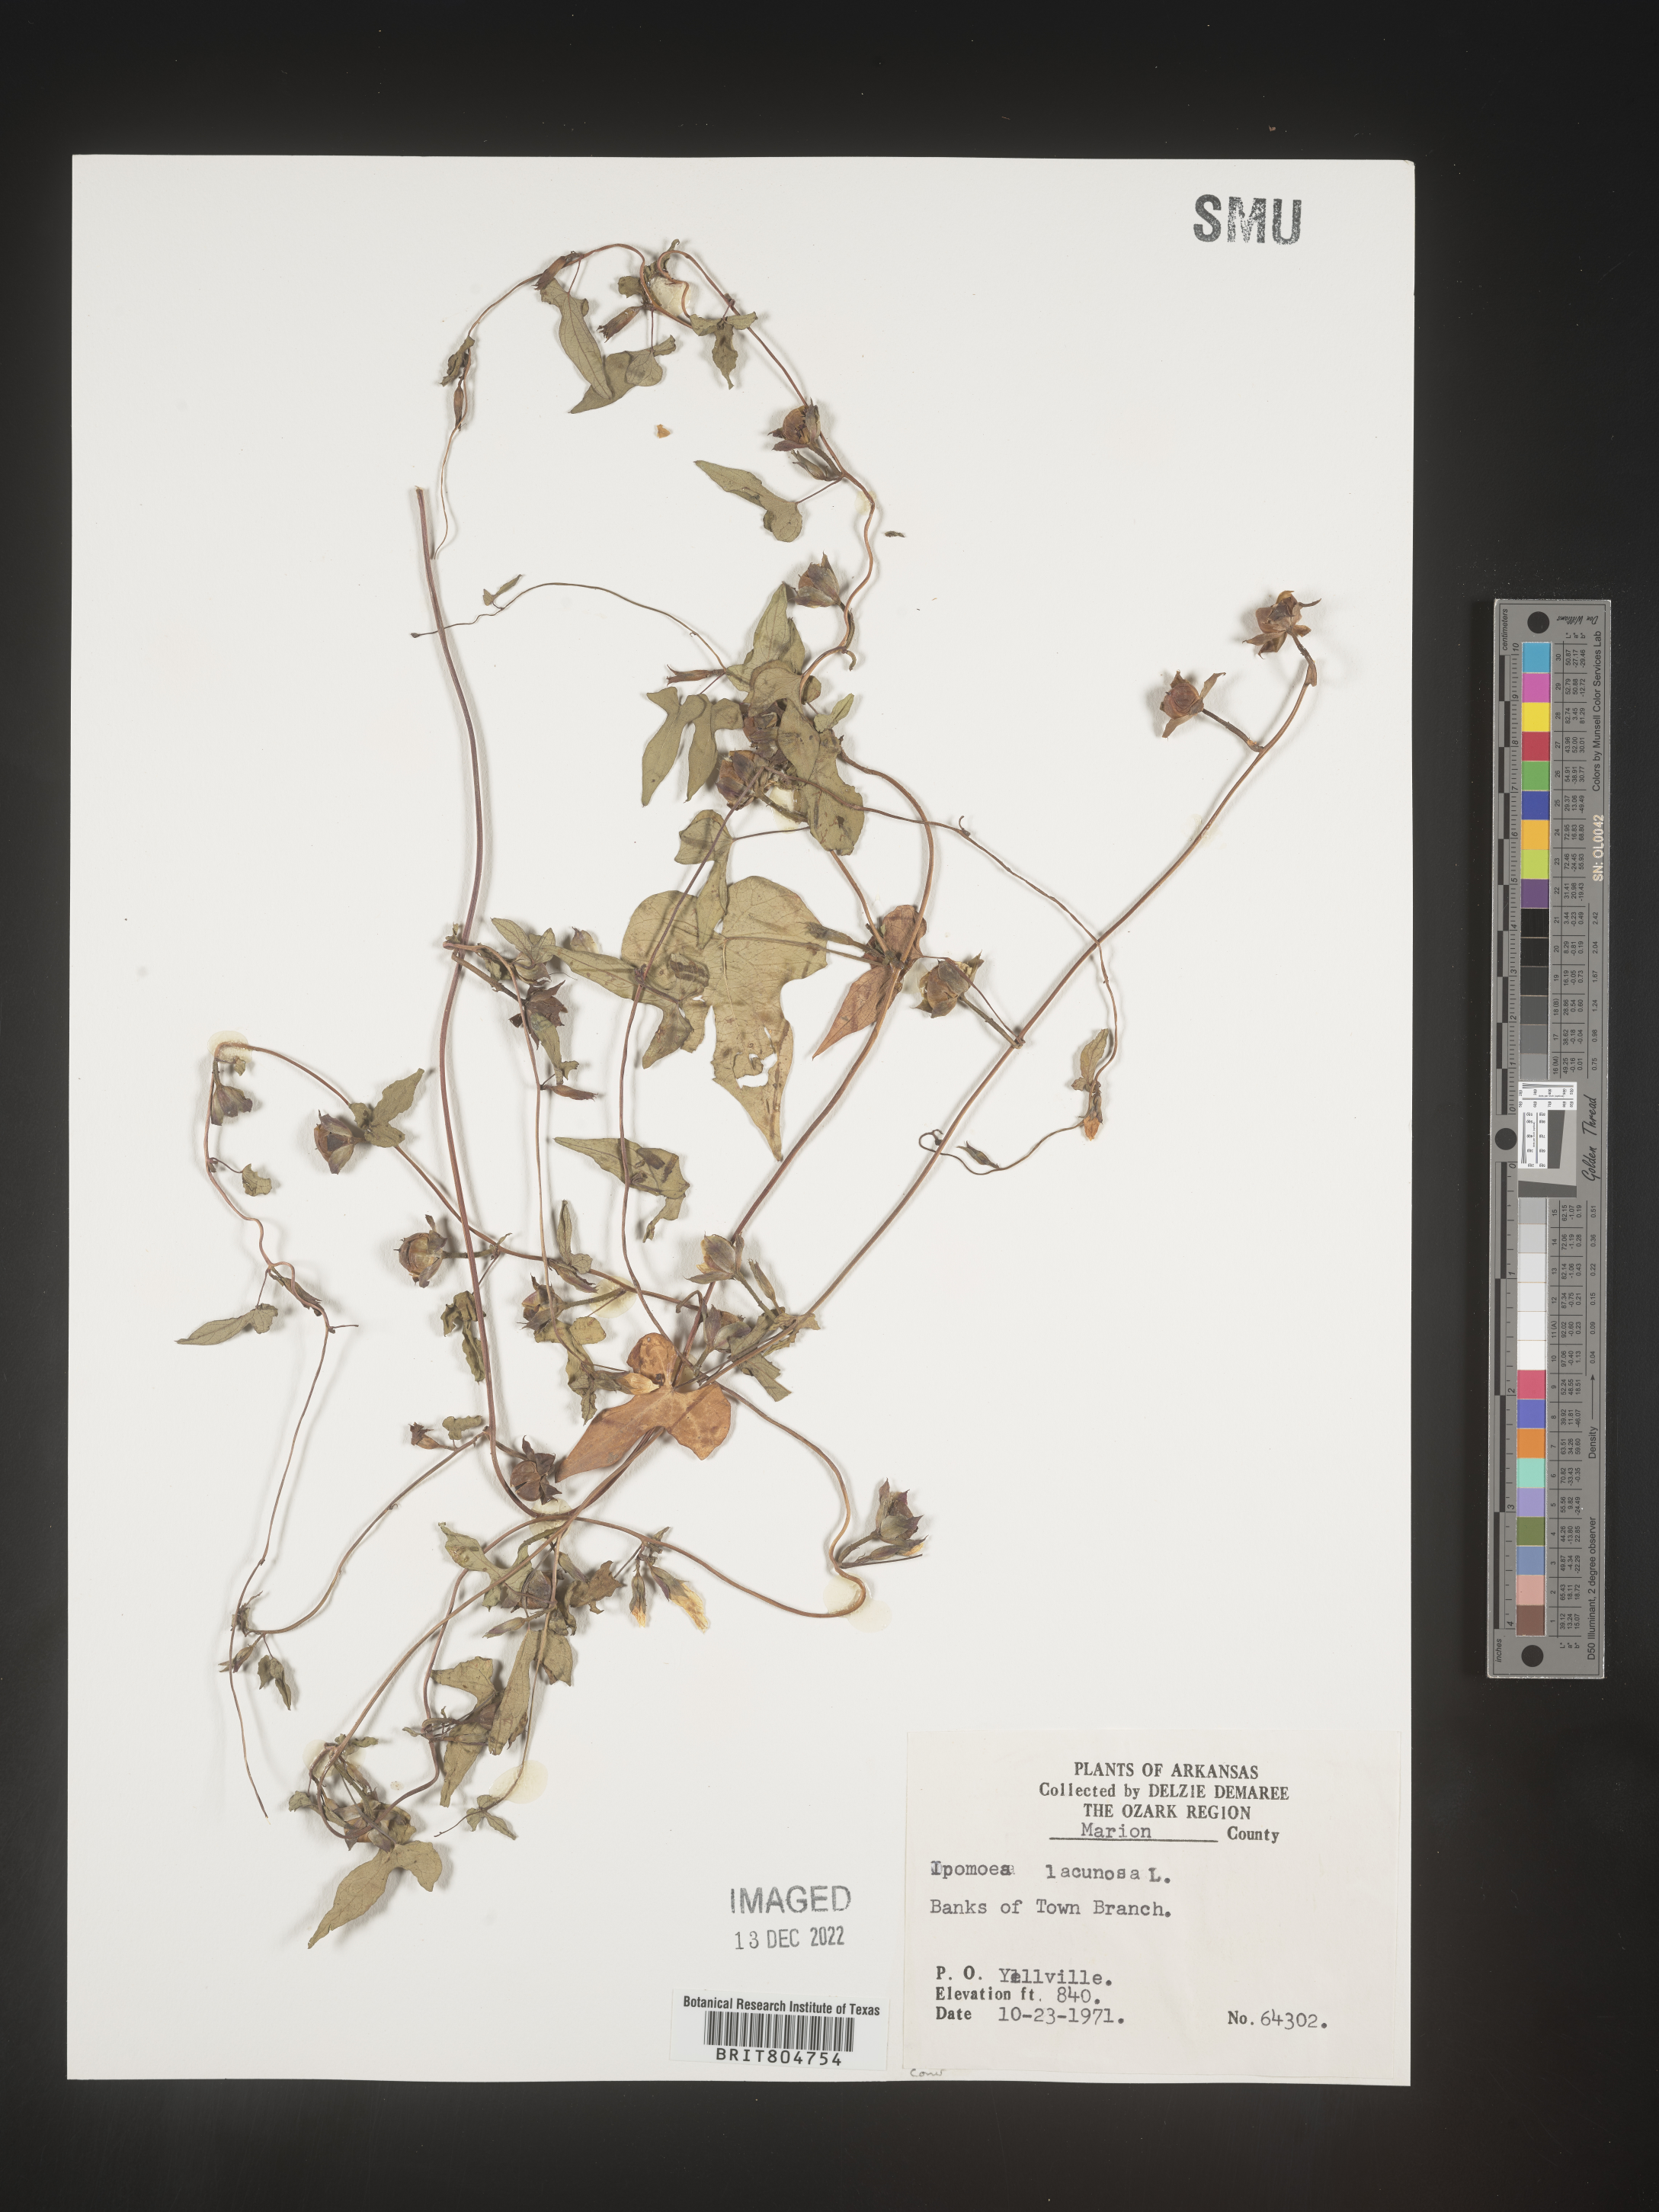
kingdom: Plantae
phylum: Tracheophyta
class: Magnoliopsida
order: Solanales
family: Convolvulaceae
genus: Ipomoea
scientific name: Ipomoea lacunosa
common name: White morning-glory
